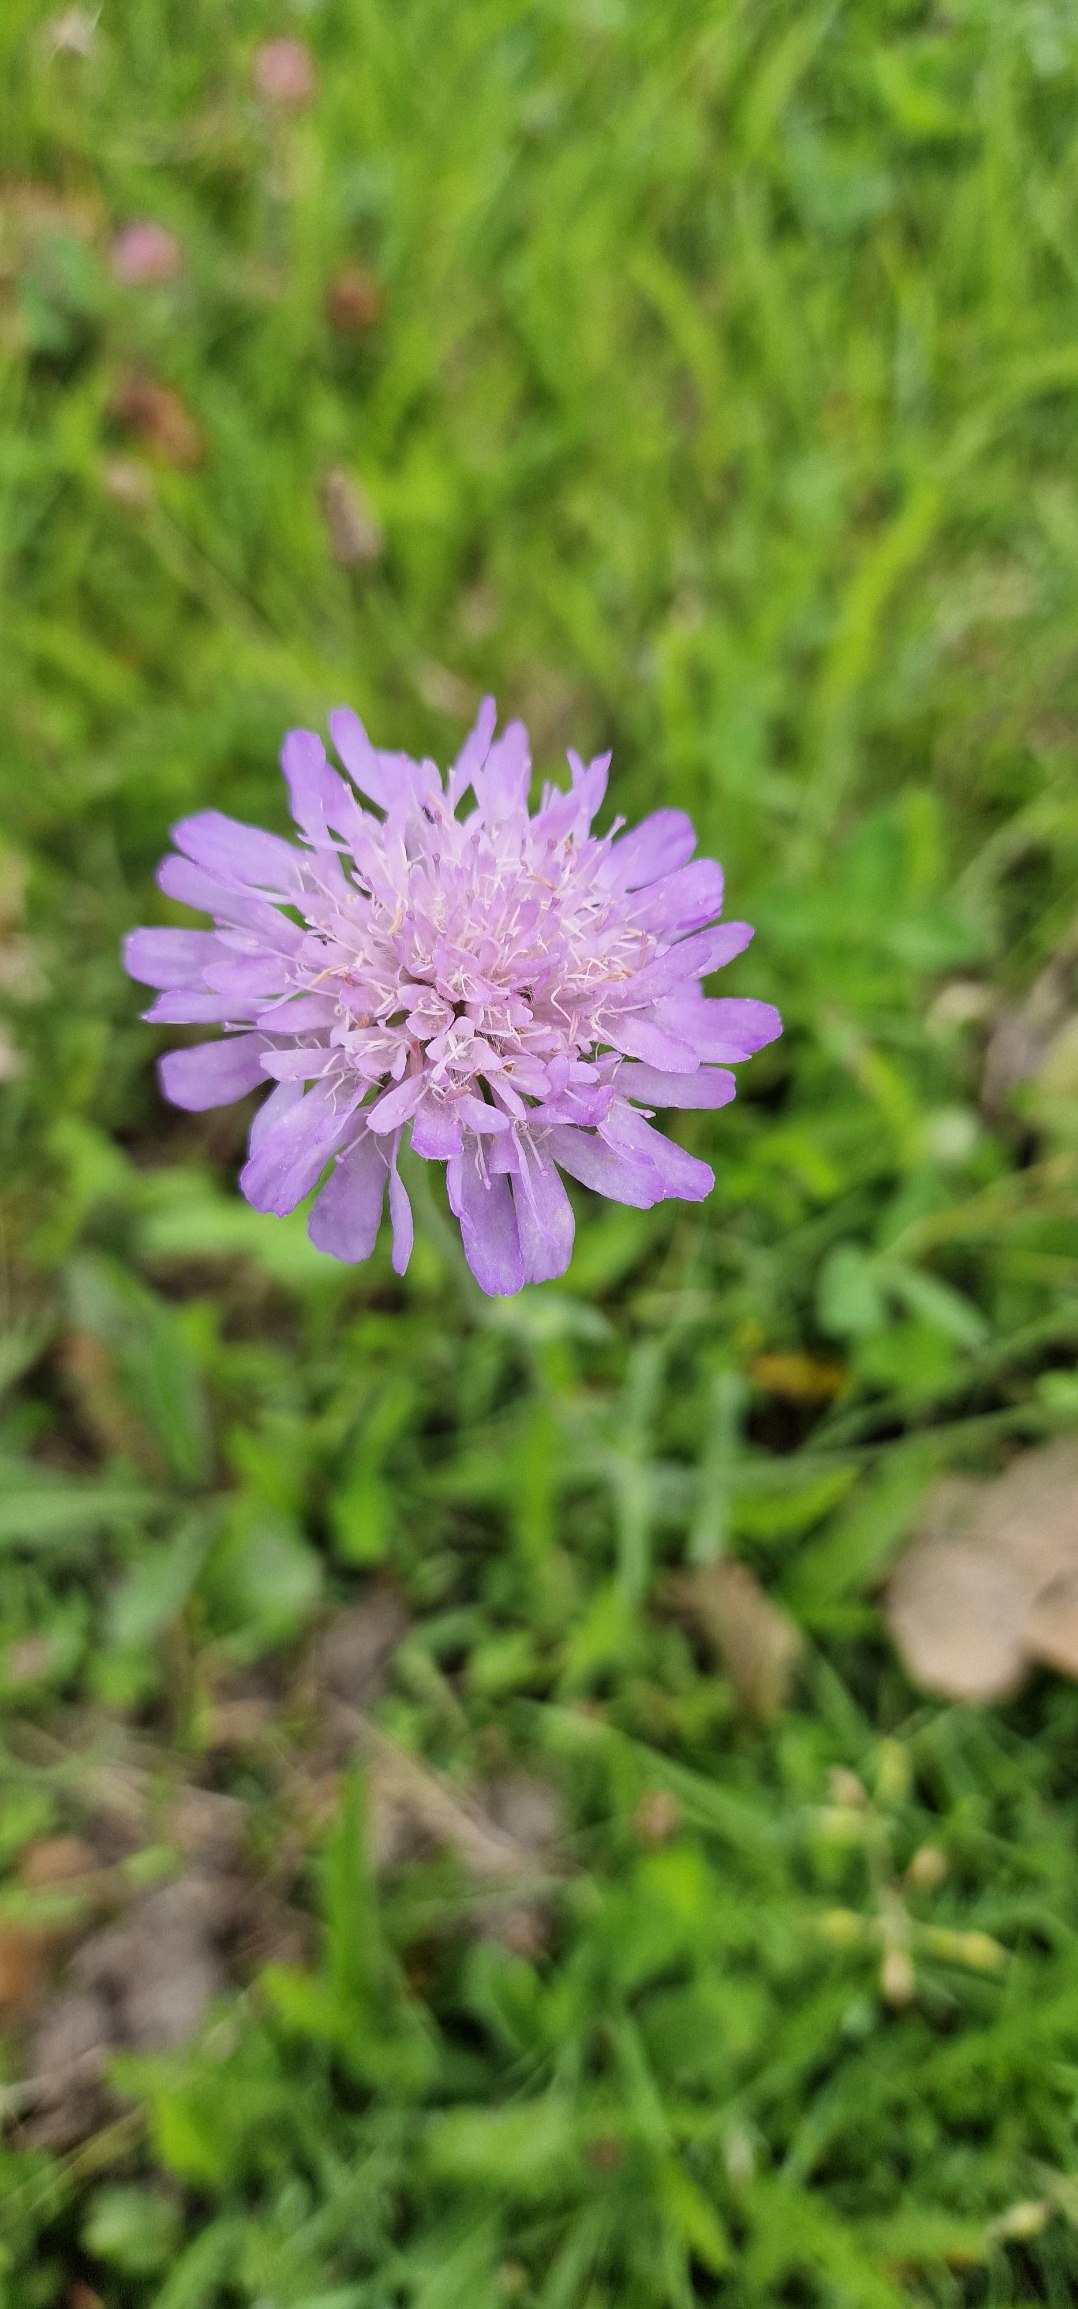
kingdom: Plantae
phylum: Tracheophyta
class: Magnoliopsida
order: Dipsacales
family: Caprifoliaceae
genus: Knautia
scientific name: Knautia arvensis
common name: Blåhat
